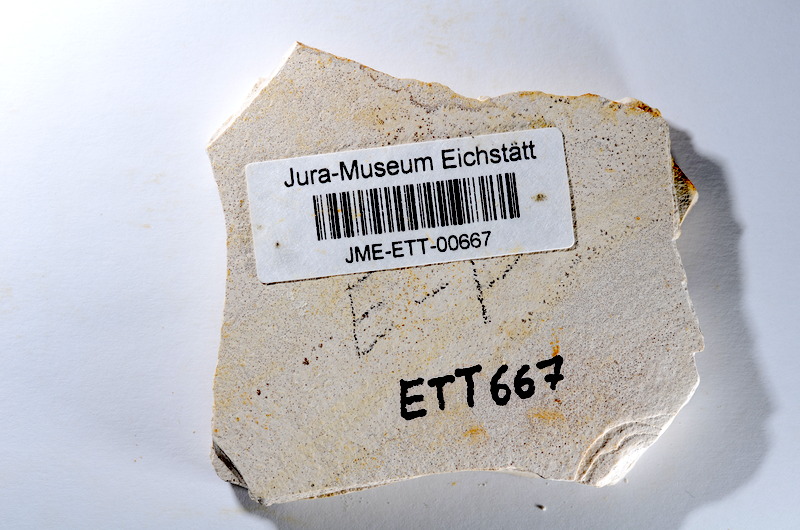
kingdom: Animalia
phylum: Chordata
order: Salmoniformes
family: Orthogonikleithridae
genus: Orthogonikleithrus
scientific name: Orthogonikleithrus hoelli
